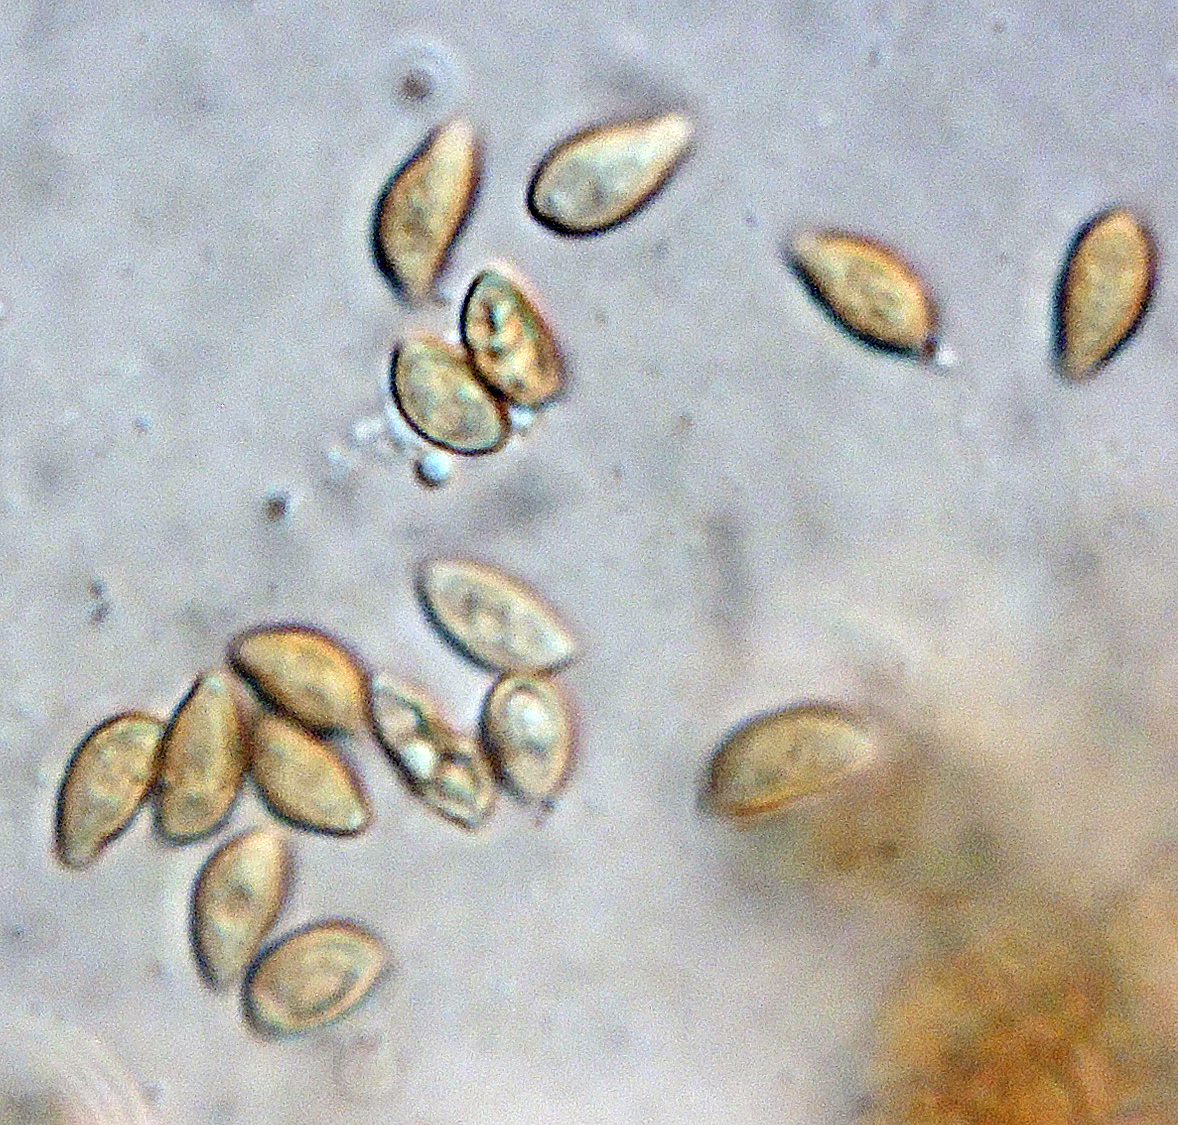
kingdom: Fungi
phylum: Basidiomycota
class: Agaricomycetes
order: Agaricales
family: Bolbitiaceae
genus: Conocybe
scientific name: Conocybe dumetorum
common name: Copse conecap
